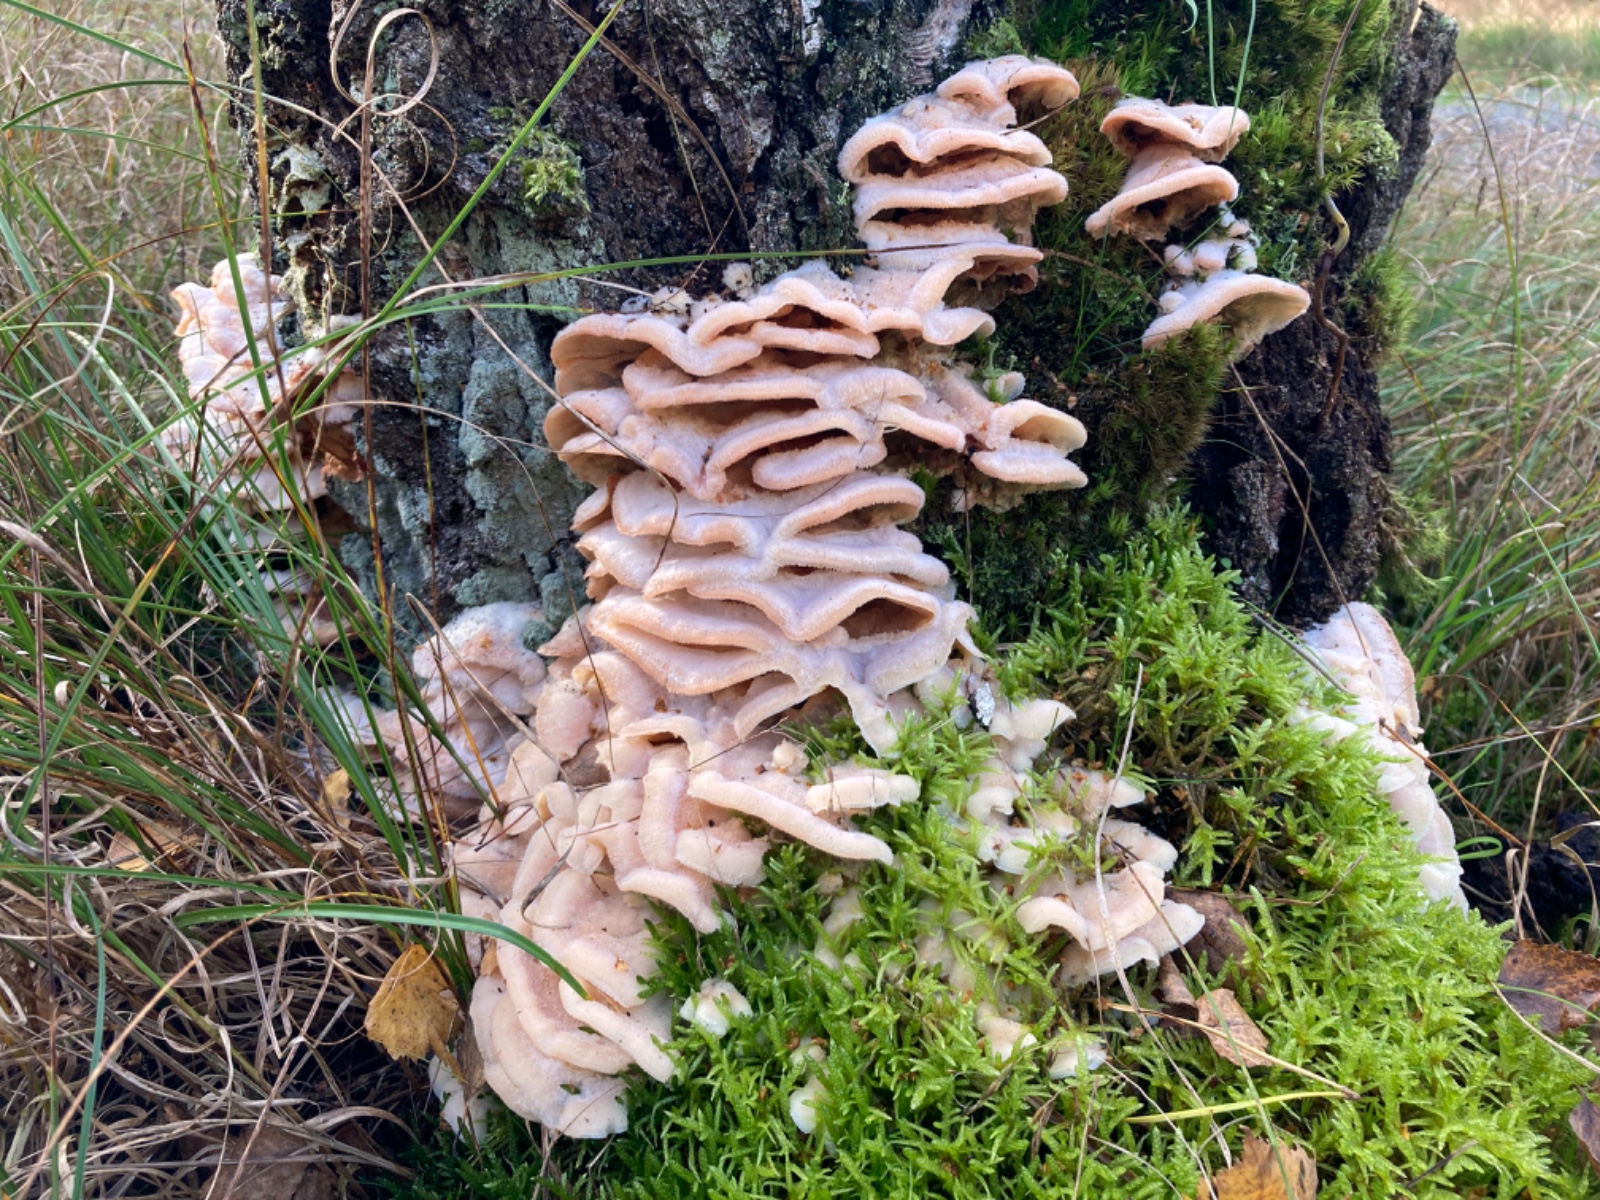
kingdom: Fungi
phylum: Basidiomycota
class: Agaricomycetes
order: Polyporales
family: Meruliaceae
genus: Phlebia
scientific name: Phlebia tremellosa
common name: bævrende åresvamp
